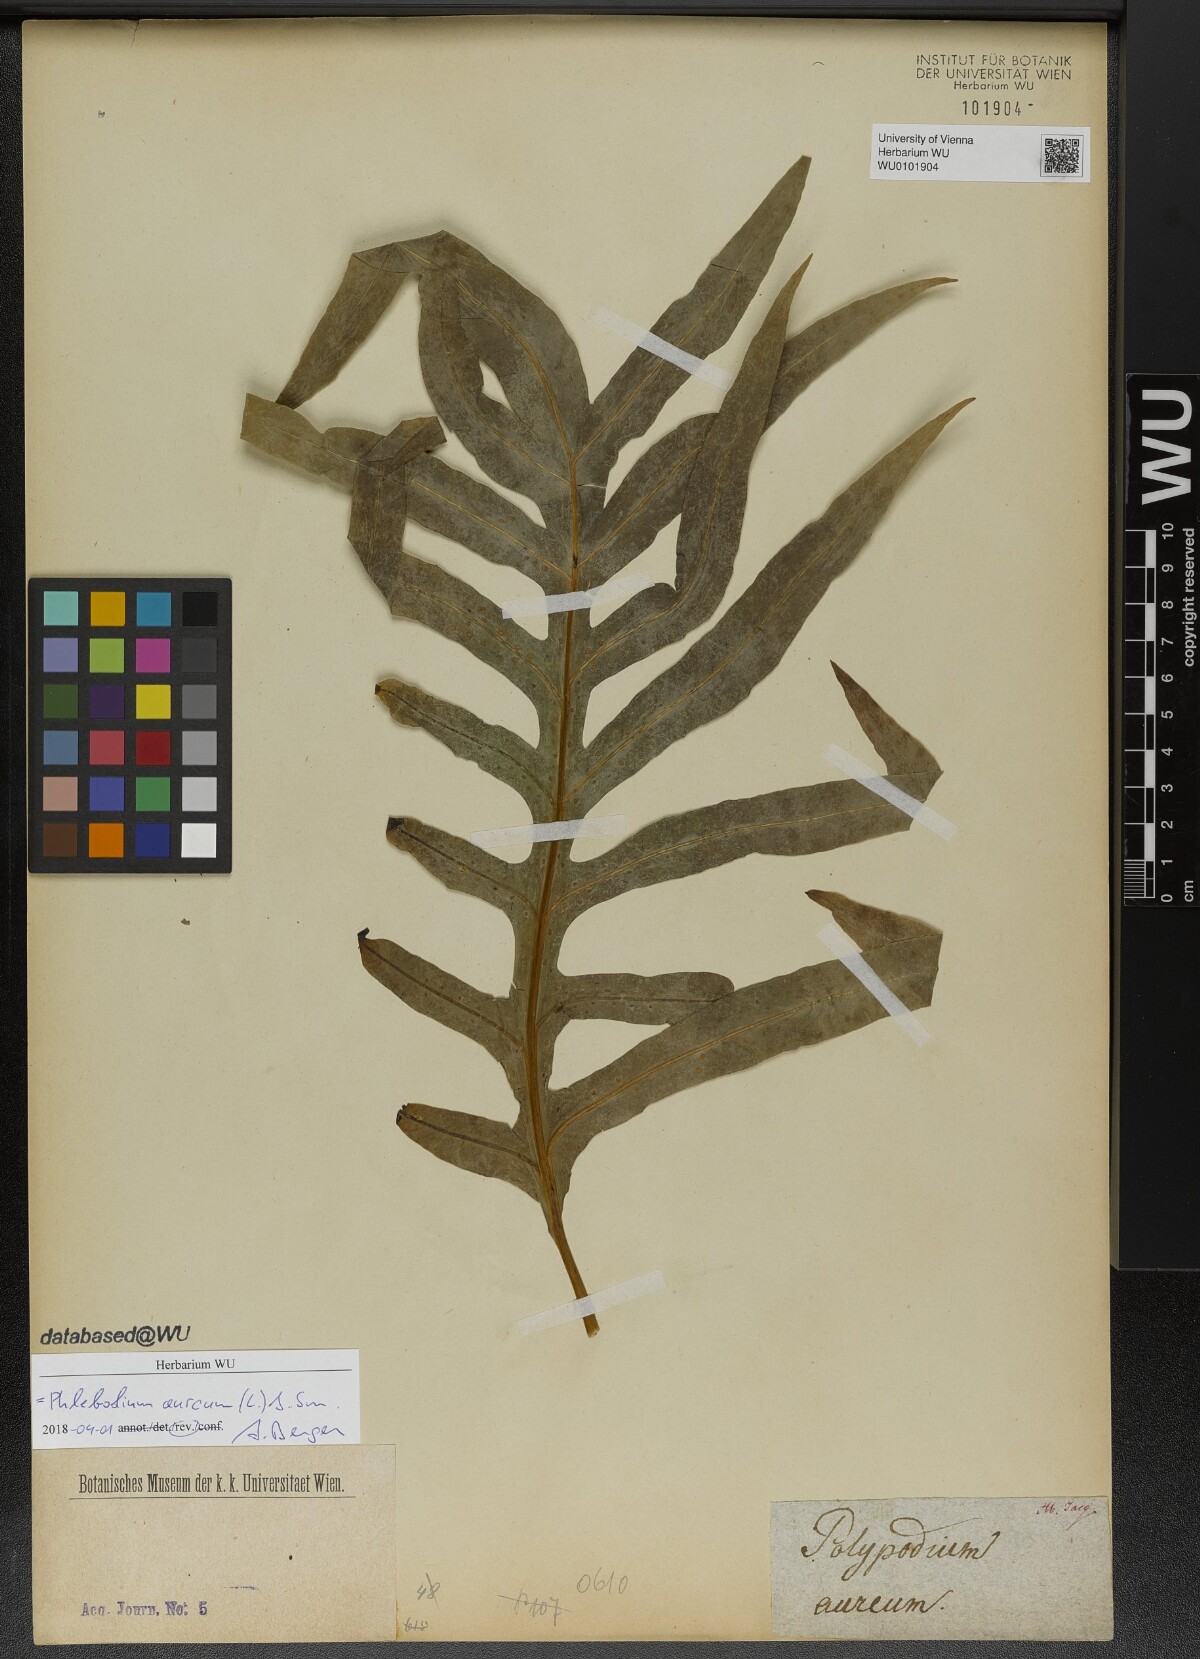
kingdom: Plantae
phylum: Tracheophyta
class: Polypodiopsida
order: Polypodiales
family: Polypodiaceae
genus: Phlebodium
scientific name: Phlebodium aureum
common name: Gold-foot fern
